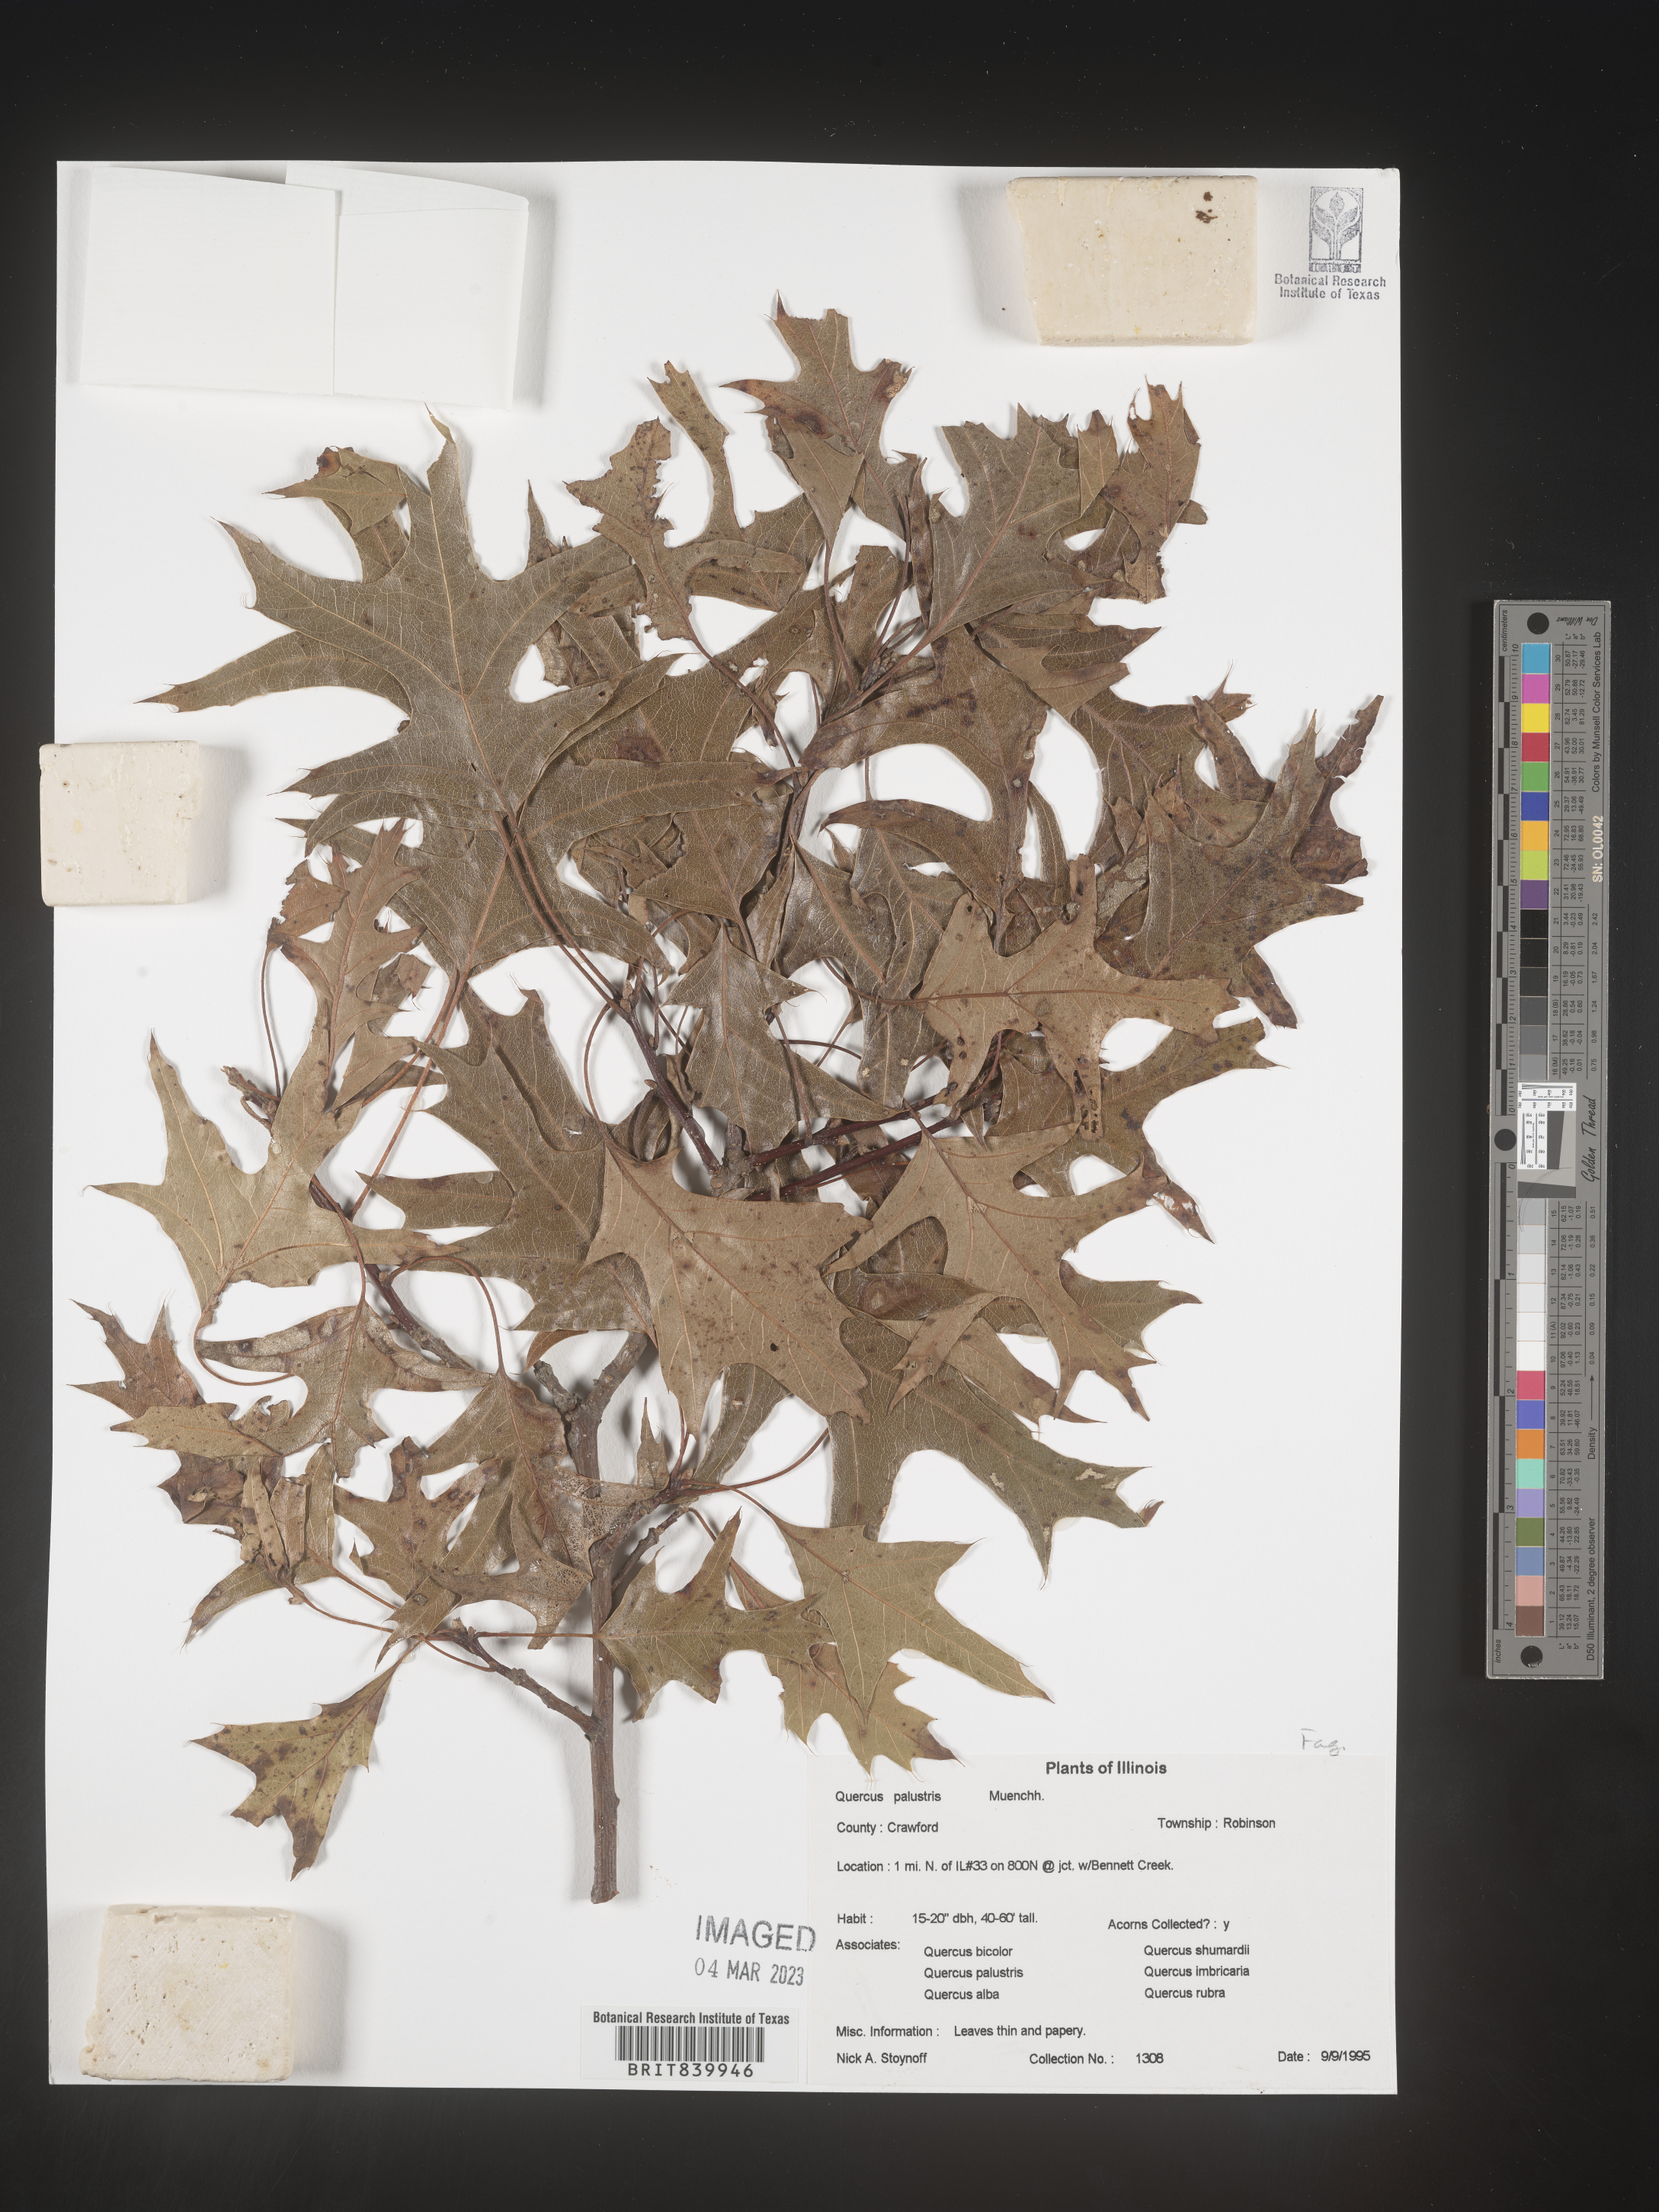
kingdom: Plantae
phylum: Tracheophyta
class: Magnoliopsida
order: Fagales
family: Fagaceae
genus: Quercus
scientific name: Quercus palustris
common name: Pin oak
